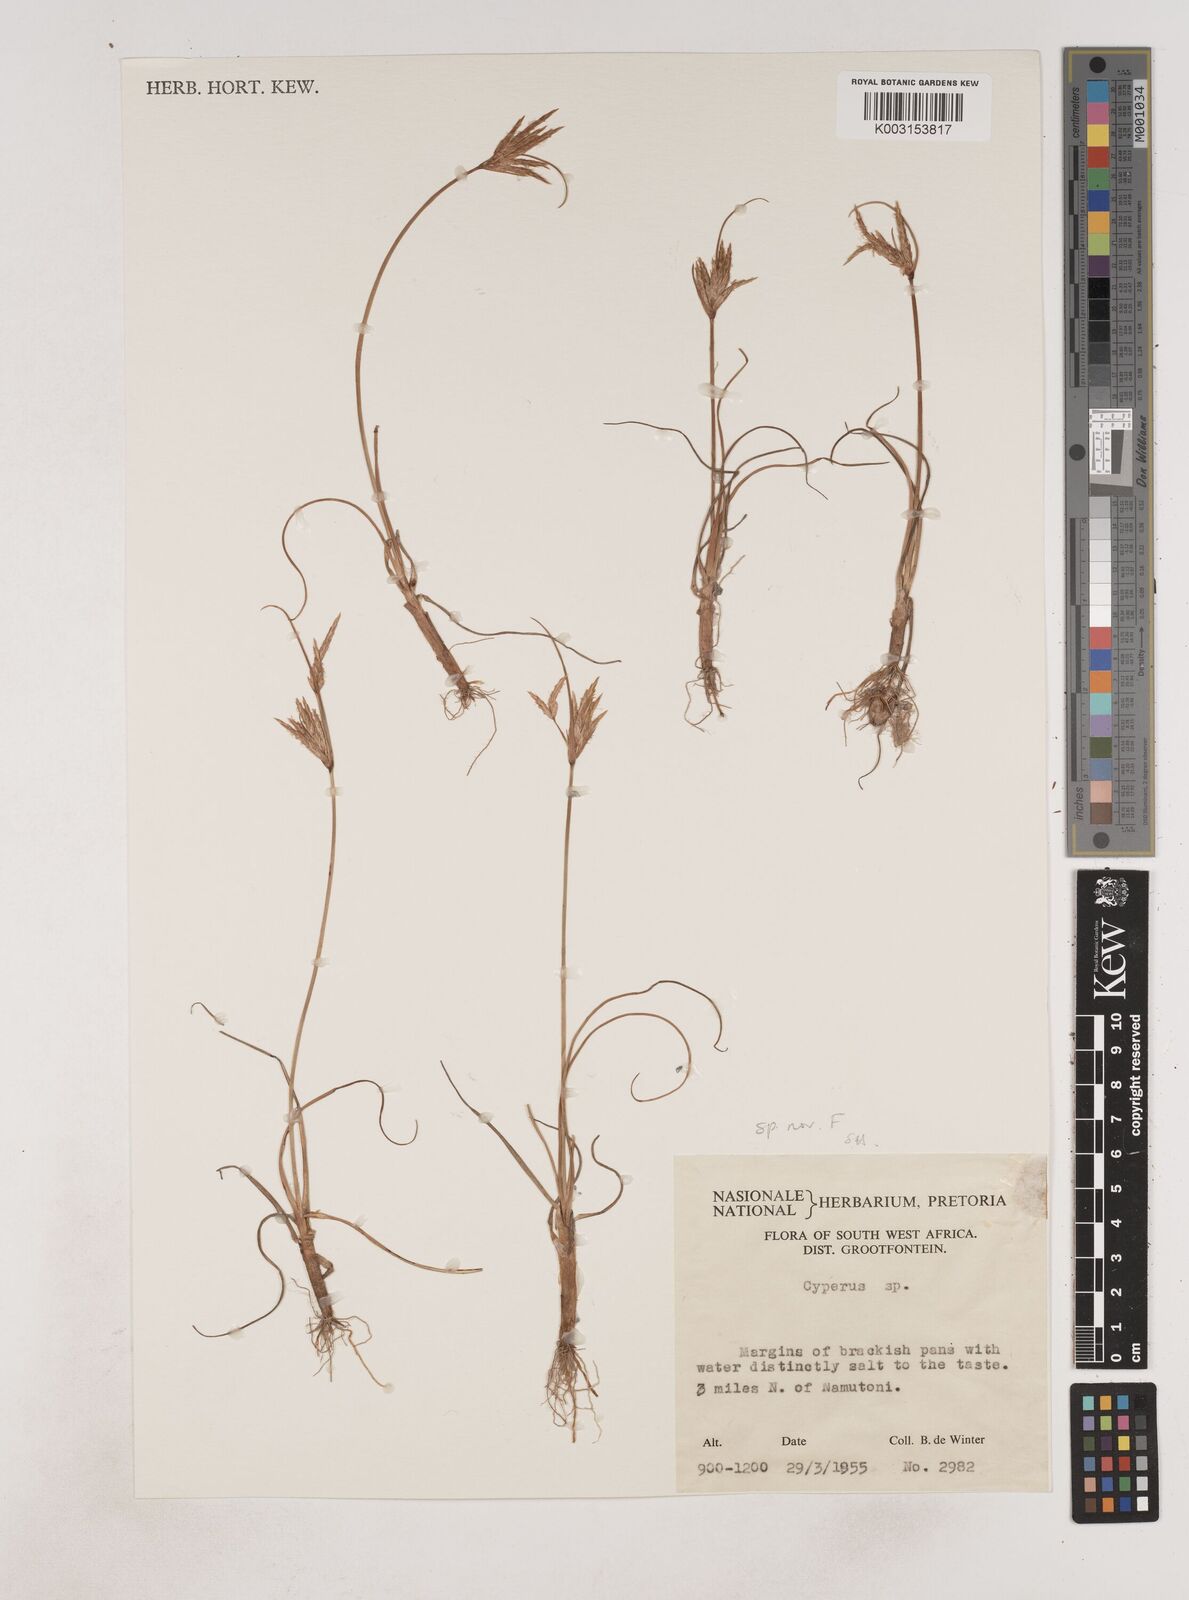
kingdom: Plantae
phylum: Tracheophyta
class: Liliopsida
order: Poales
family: Cyperaceae
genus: Cyperus
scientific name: Cyperus
